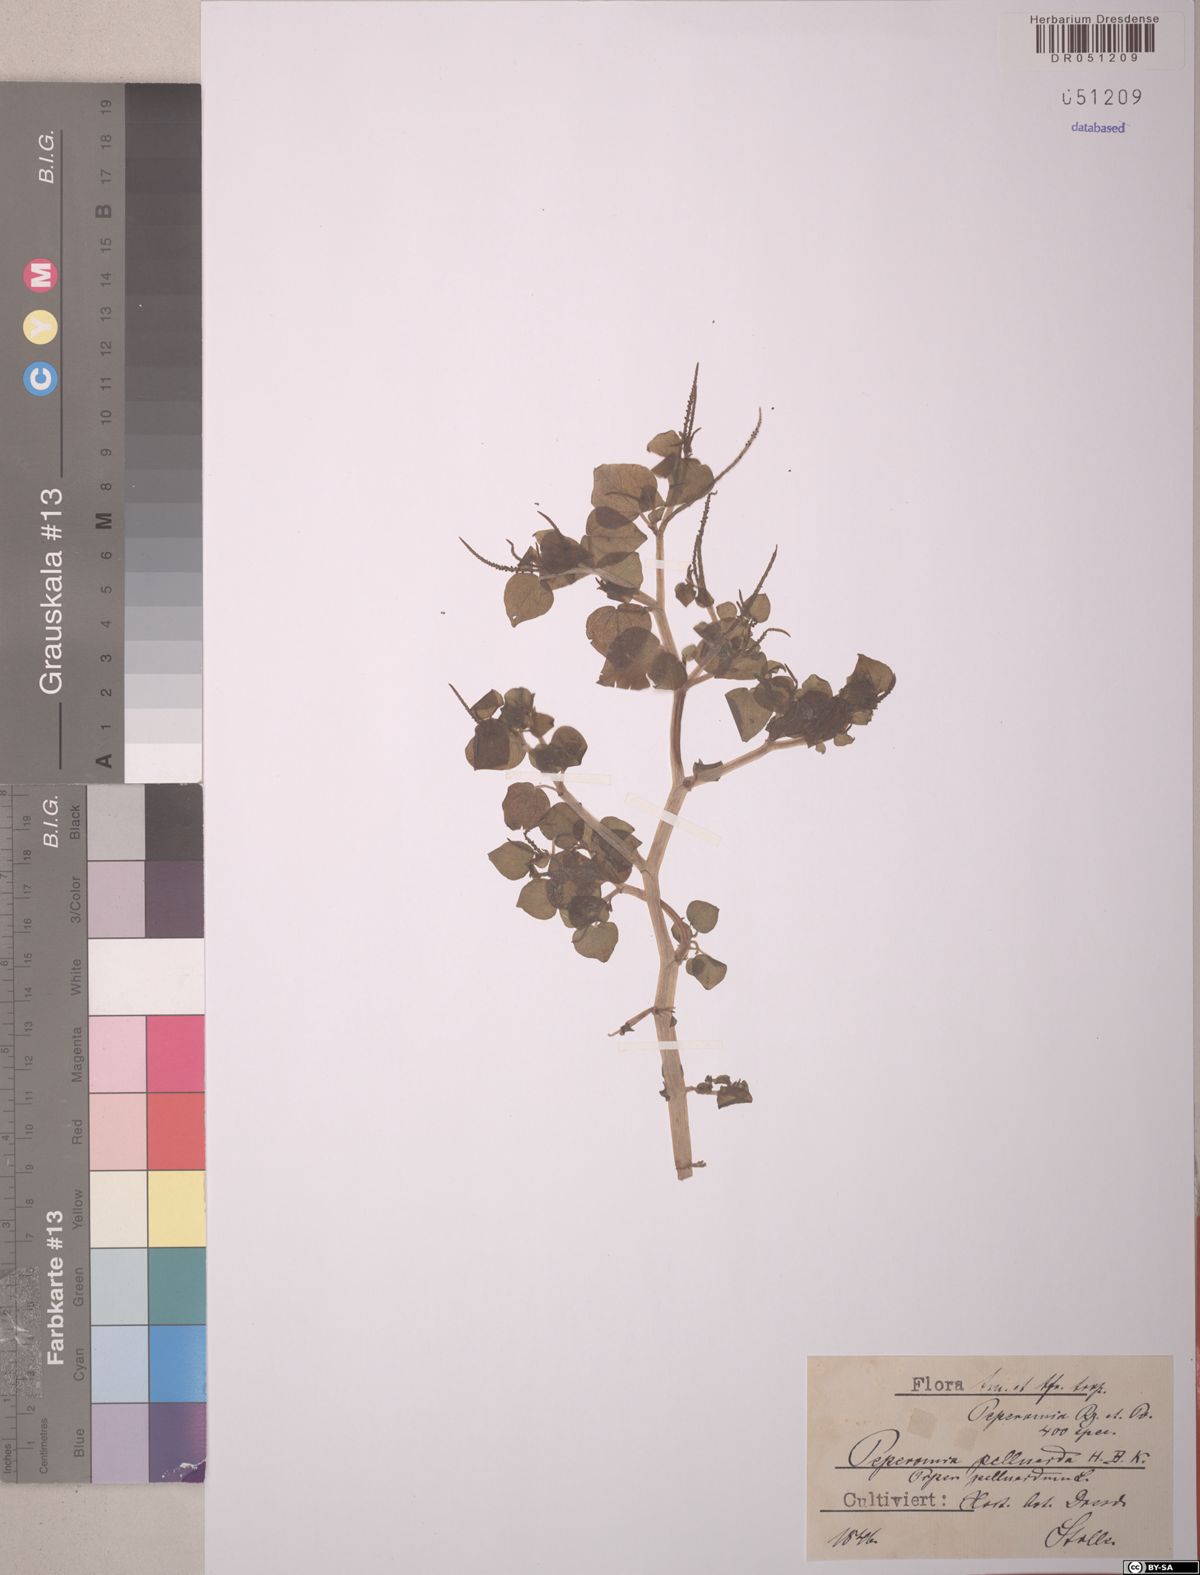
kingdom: Plantae
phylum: Tracheophyta
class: Magnoliopsida
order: Piperales
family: Piperaceae
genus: Peperomia
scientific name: Peperomia pellucida
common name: Man to man
